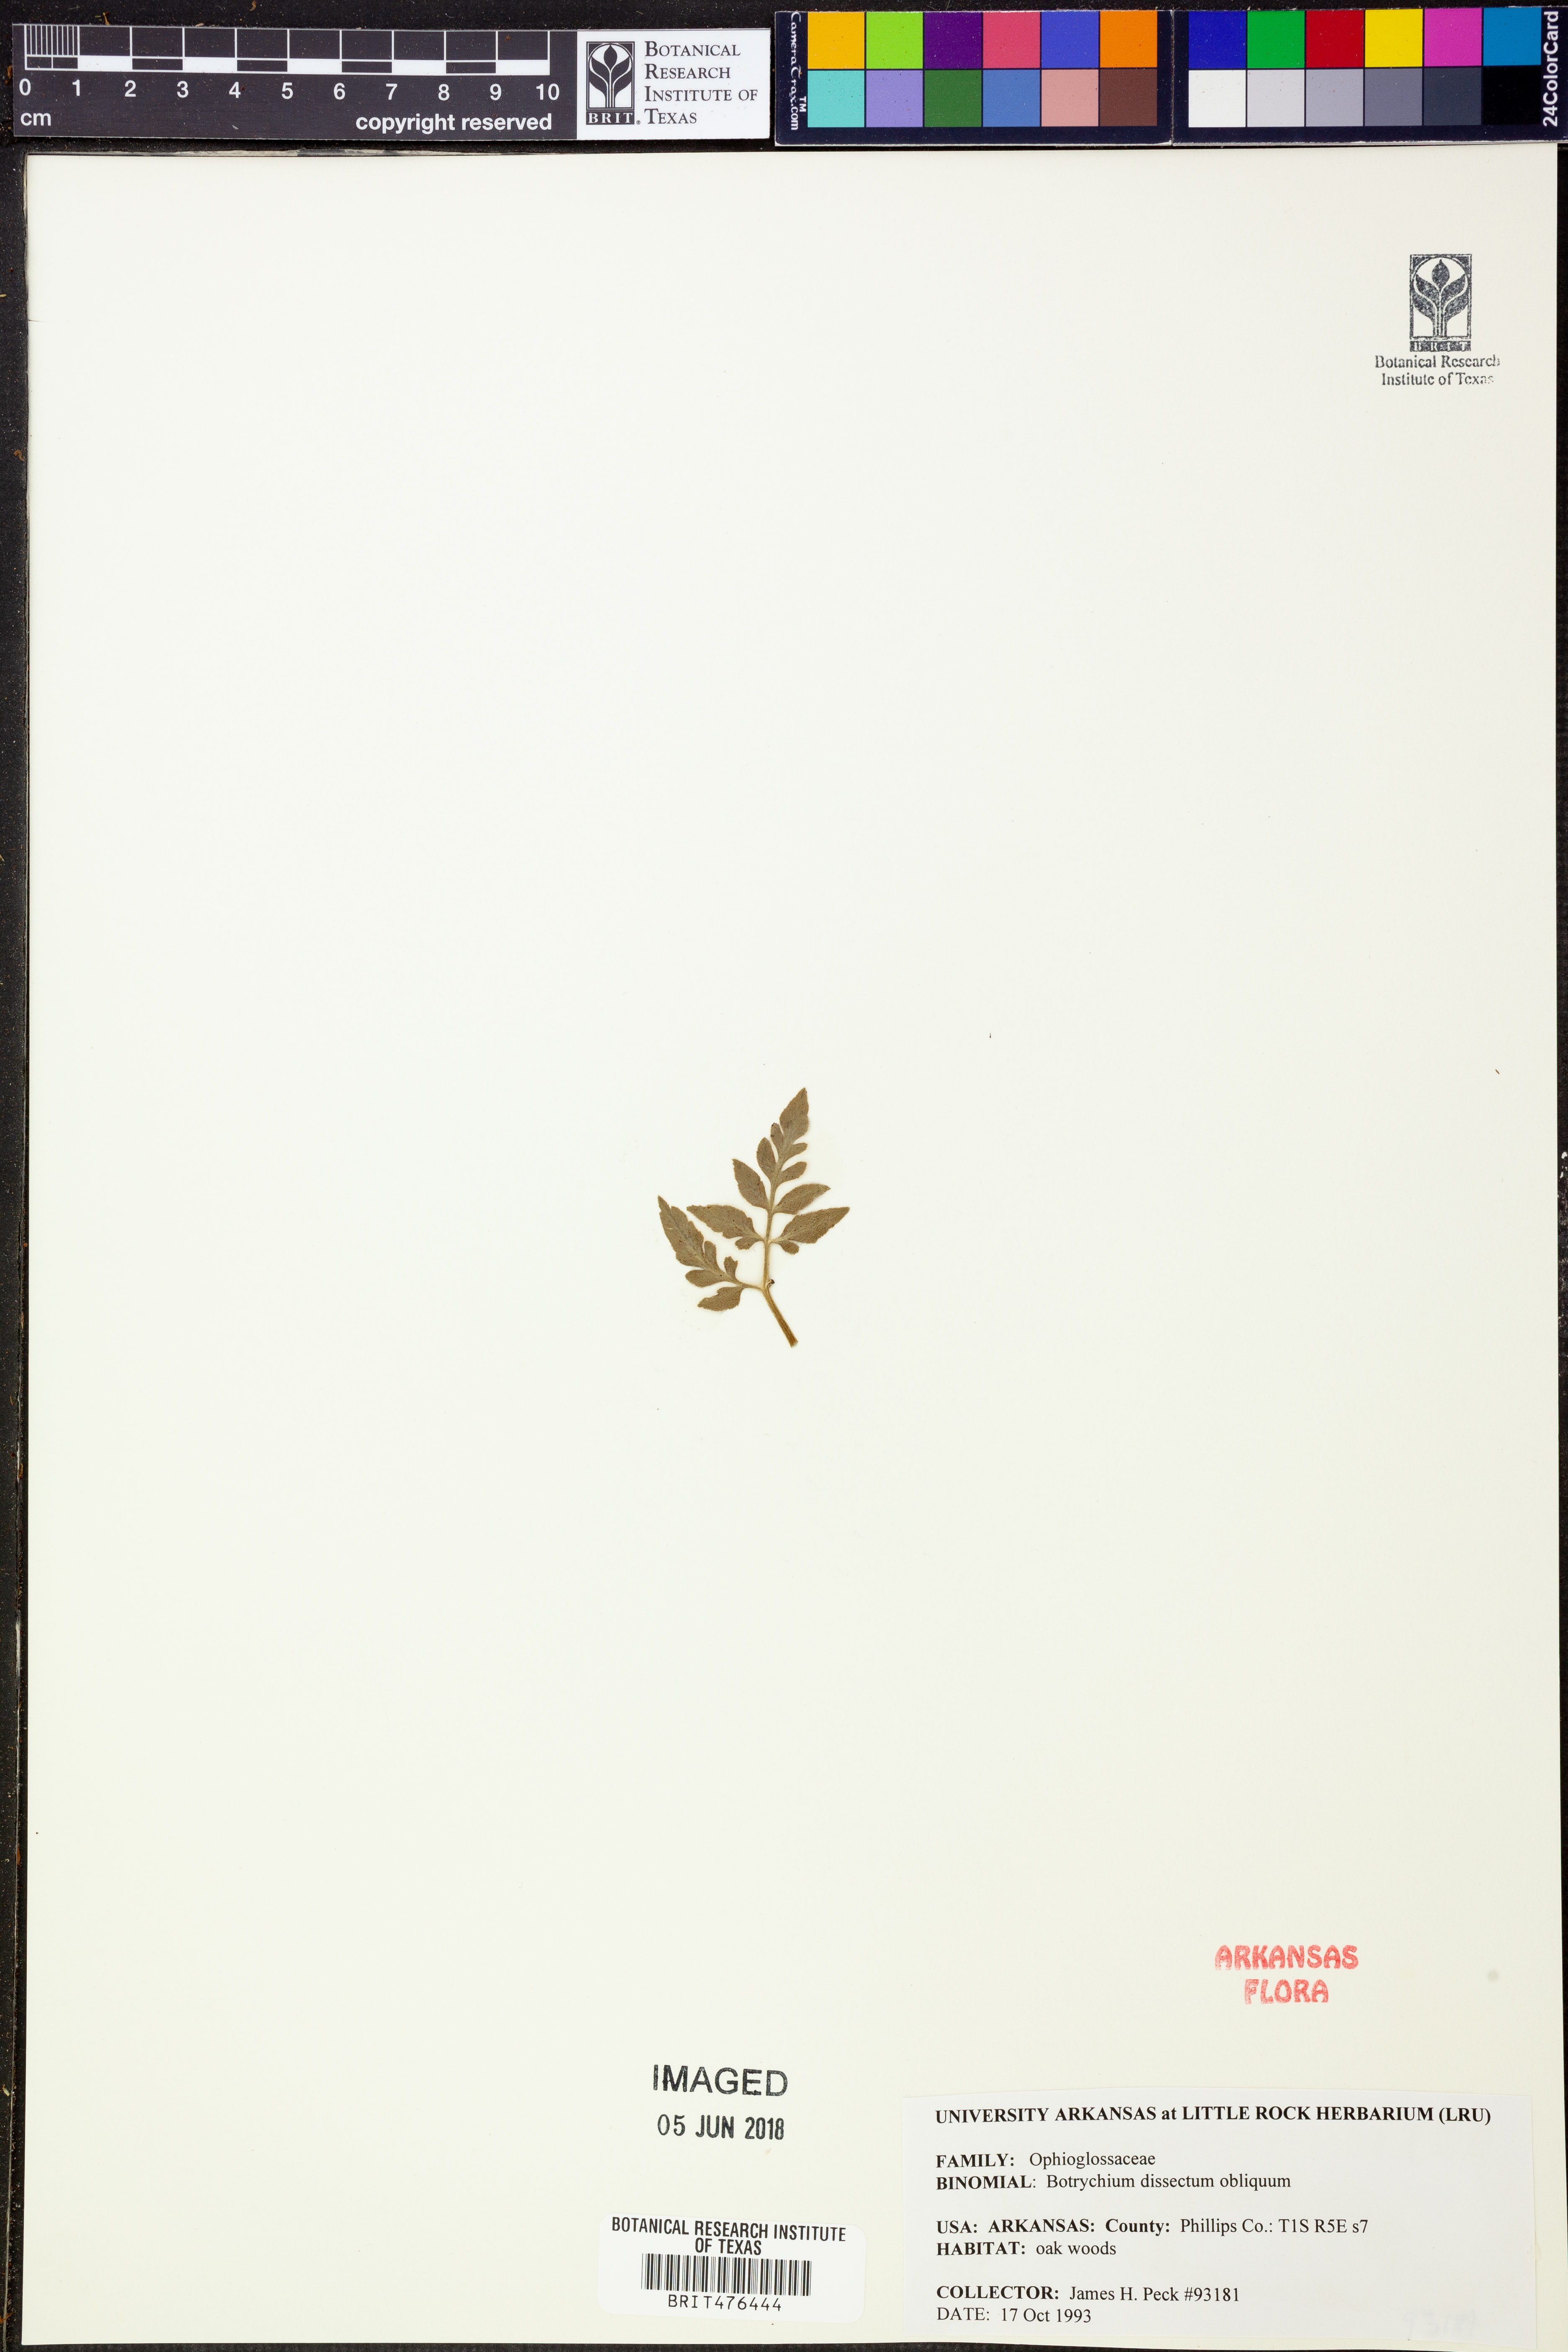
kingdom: Plantae
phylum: Tracheophyta
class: Polypodiopsida
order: Ophioglossales
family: Ophioglossaceae
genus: Sceptridium
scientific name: Sceptridium dissectum
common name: Cut-leaved grapefern
